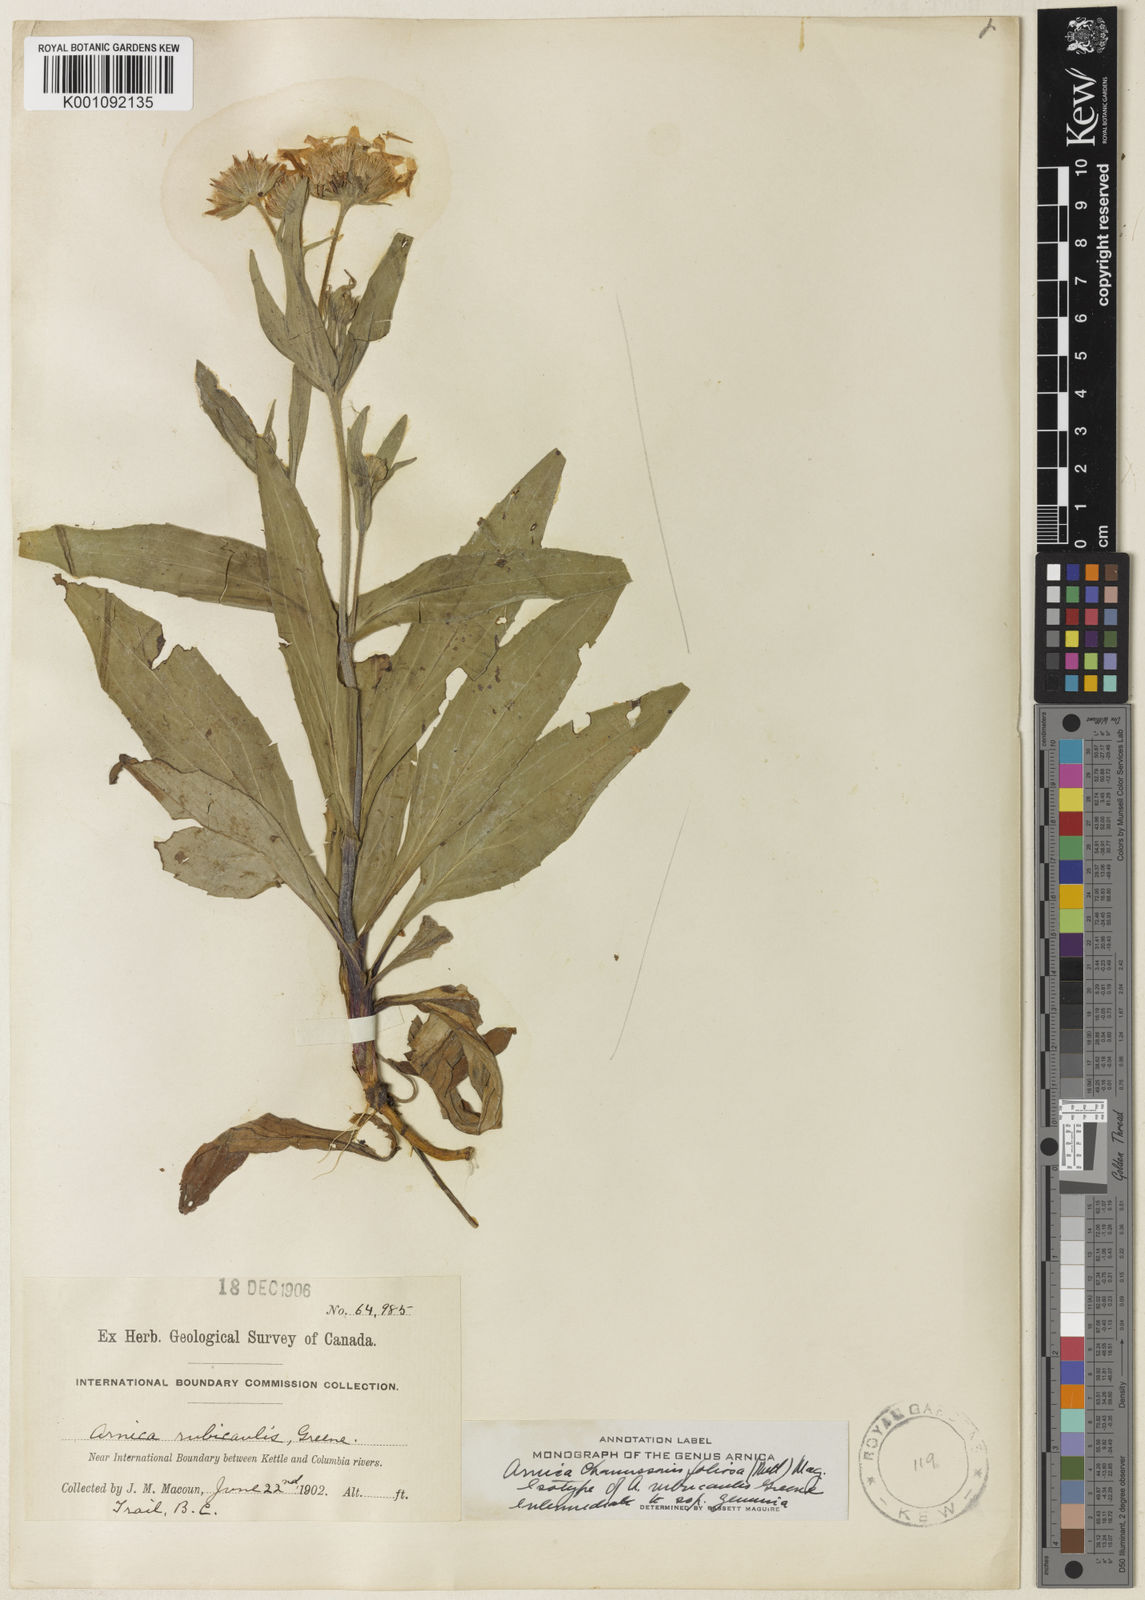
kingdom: Plantae
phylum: Tracheophyta
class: Magnoliopsida
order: Asterales
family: Asteraceae
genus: Arnica
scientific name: Arnica chamissonis
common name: Leafy arnica
